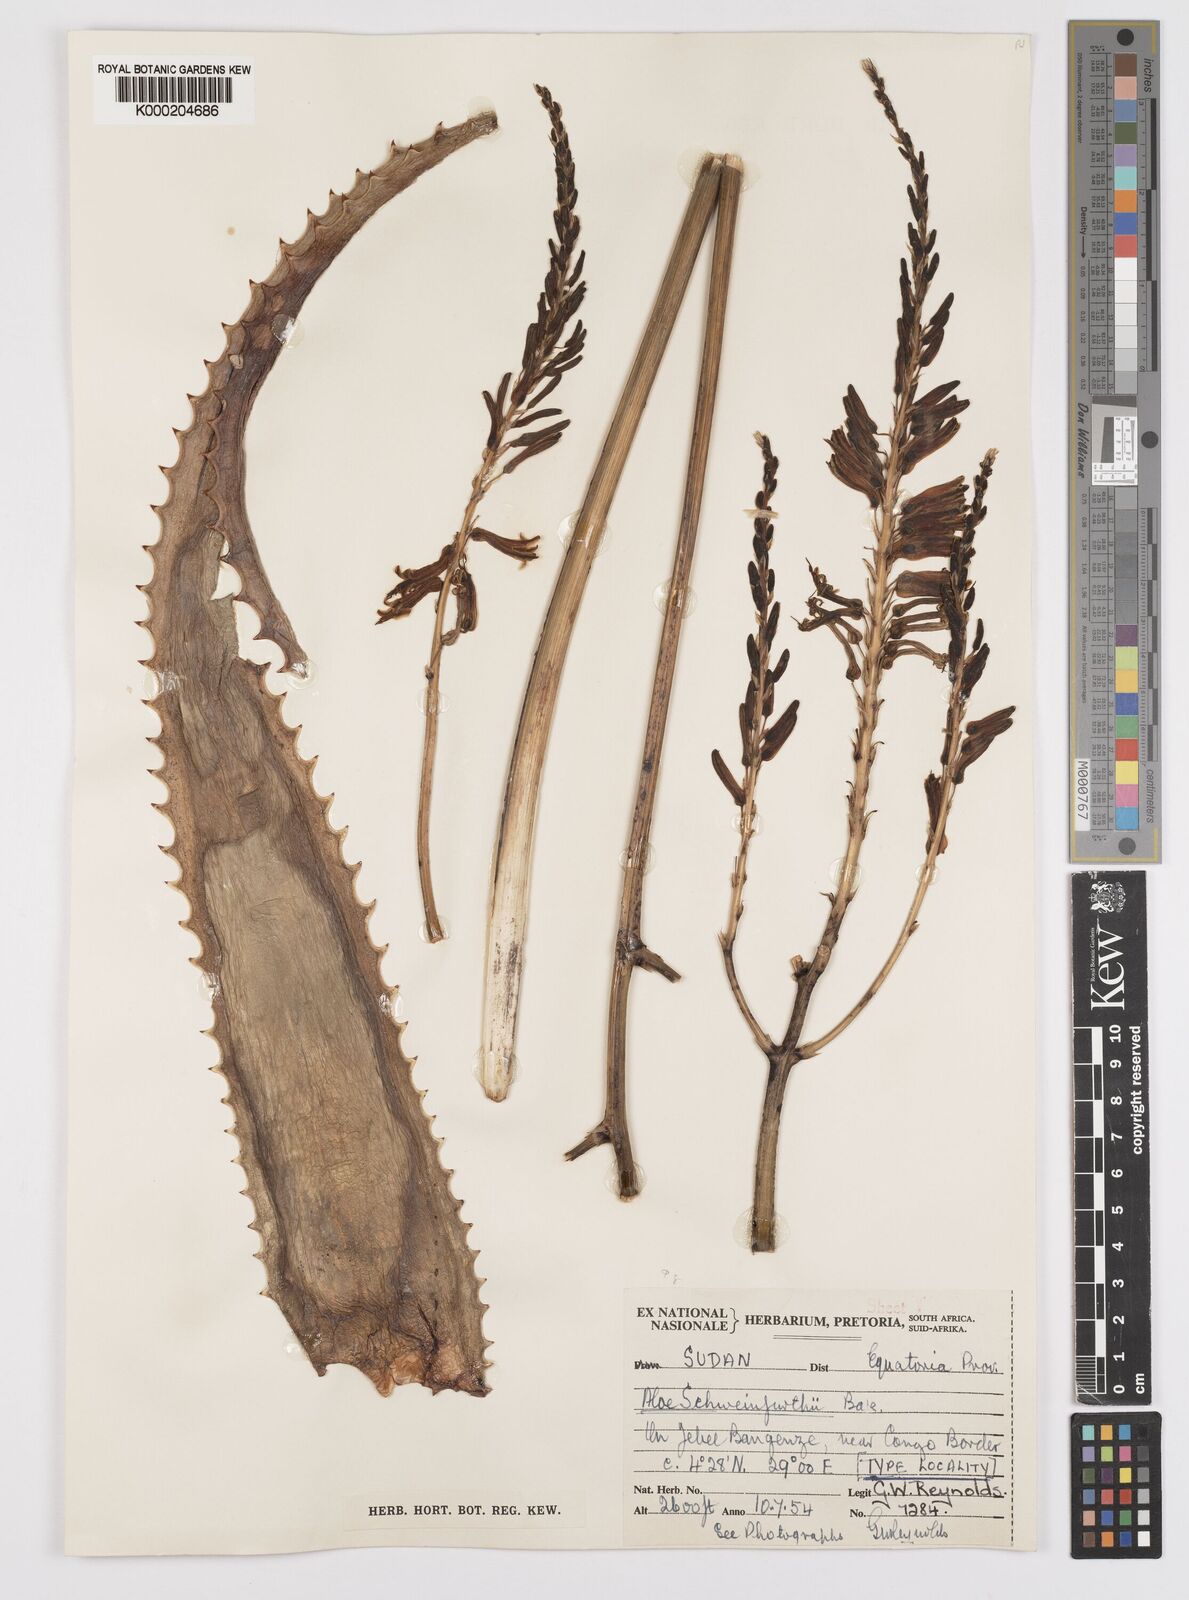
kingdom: Plantae
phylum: Tracheophyta
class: Liliopsida
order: Asparagales
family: Asphodelaceae
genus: Aloe
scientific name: Aloe schweinfurthii
